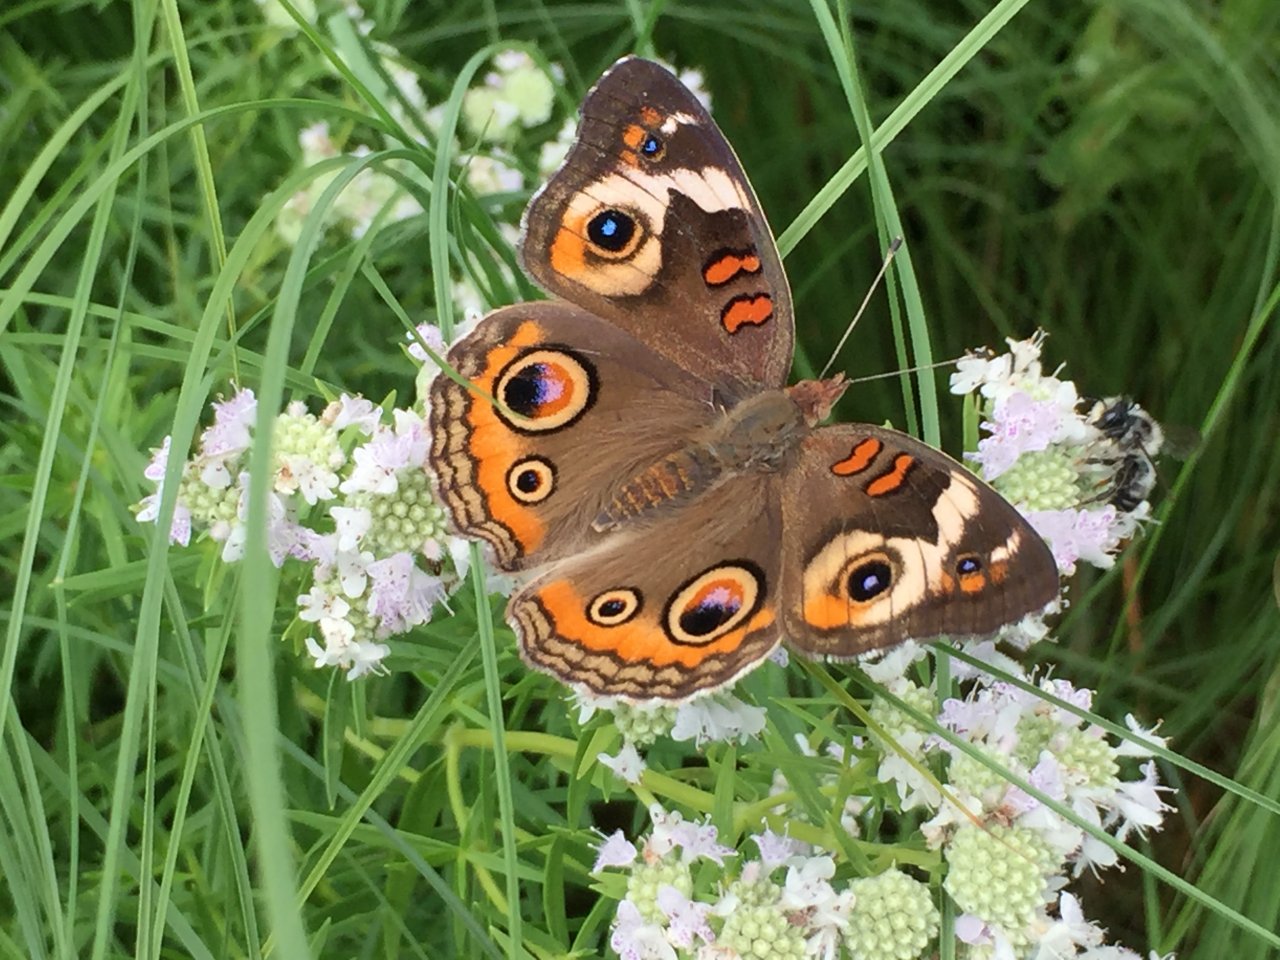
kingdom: Animalia
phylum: Arthropoda
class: Insecta
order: Lepidoptera
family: Nymphalidae
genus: Junonia
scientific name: Junonia coenia
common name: Common Buckeye
